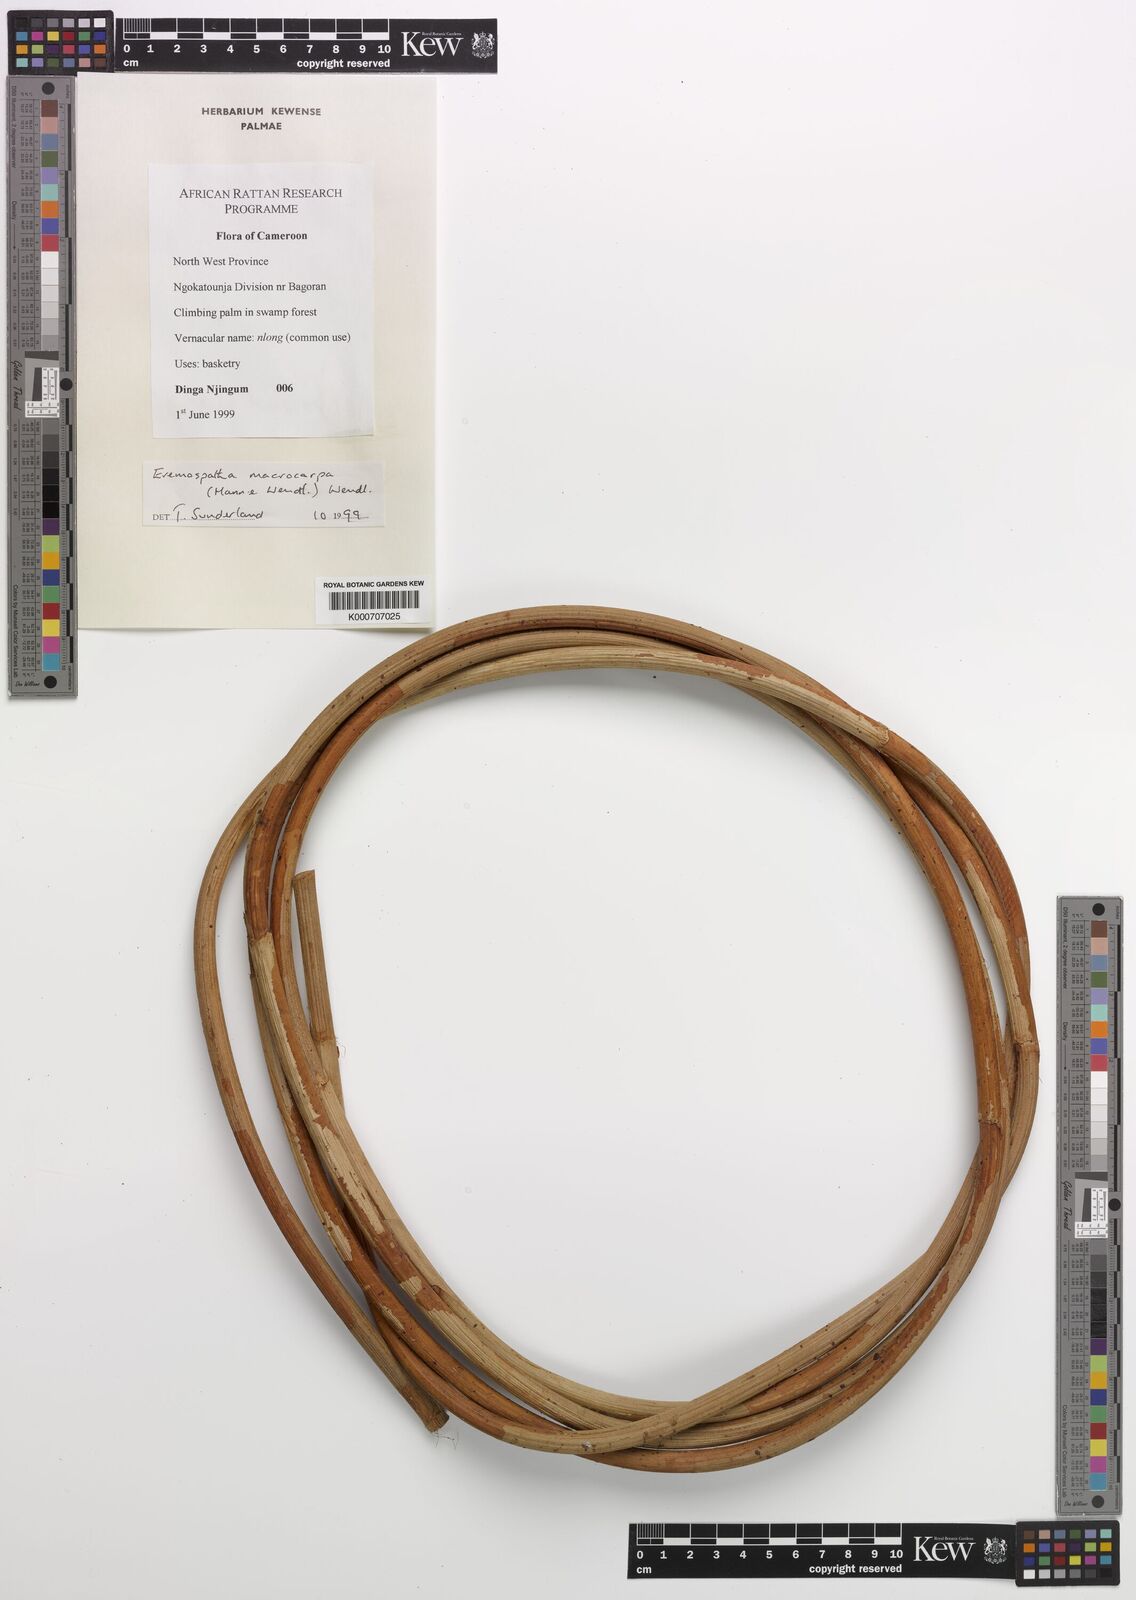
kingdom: Plantae
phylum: Tracheophyta
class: Liliopsida
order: Arecales
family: Arecaceae
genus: Eremospatha
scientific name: Eremospatha macrocarpa
